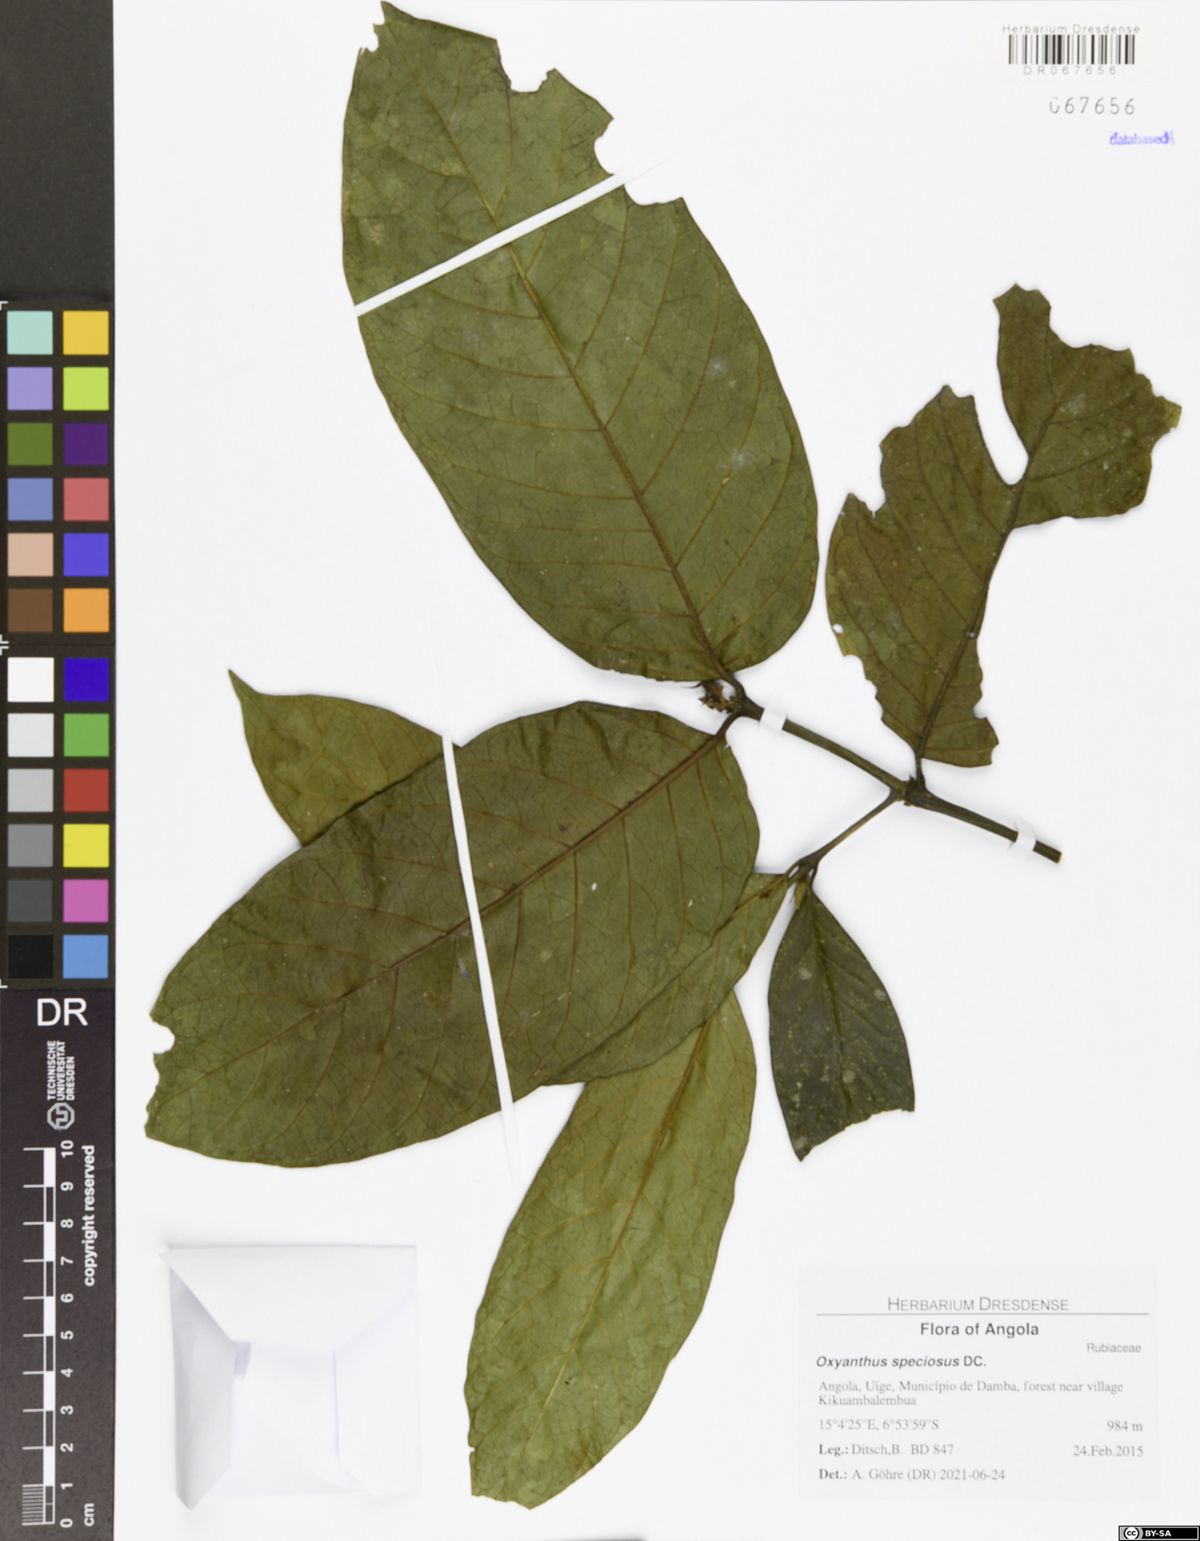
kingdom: Plantae
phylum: Tracheophyta
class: Magnoliopsida
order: Gentianales
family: Rubiaceae
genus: Oxyanthus
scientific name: Oxyanthus speciosus
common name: Whipstick loquat
